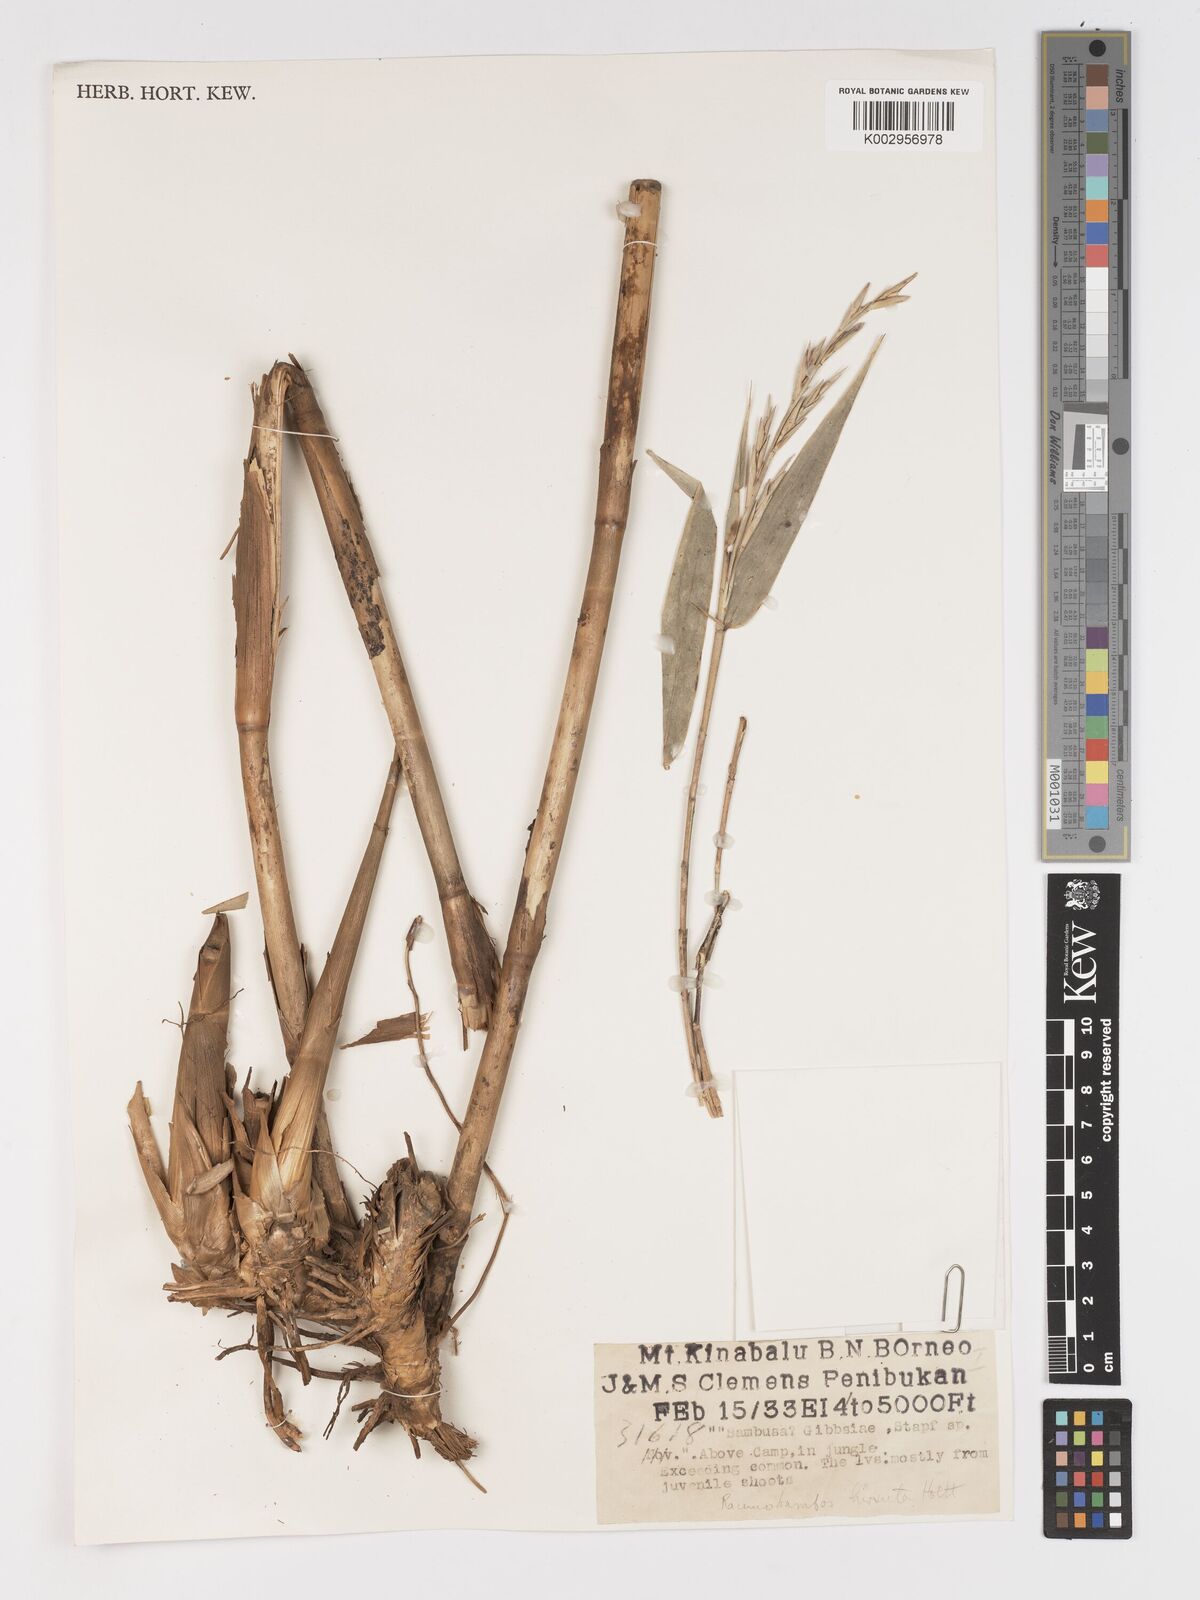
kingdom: Plantae
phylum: Tracheophyta
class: Liliopsida
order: Poales
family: Poaceae
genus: Racemobambos
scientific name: Racemobambos hirsuta
